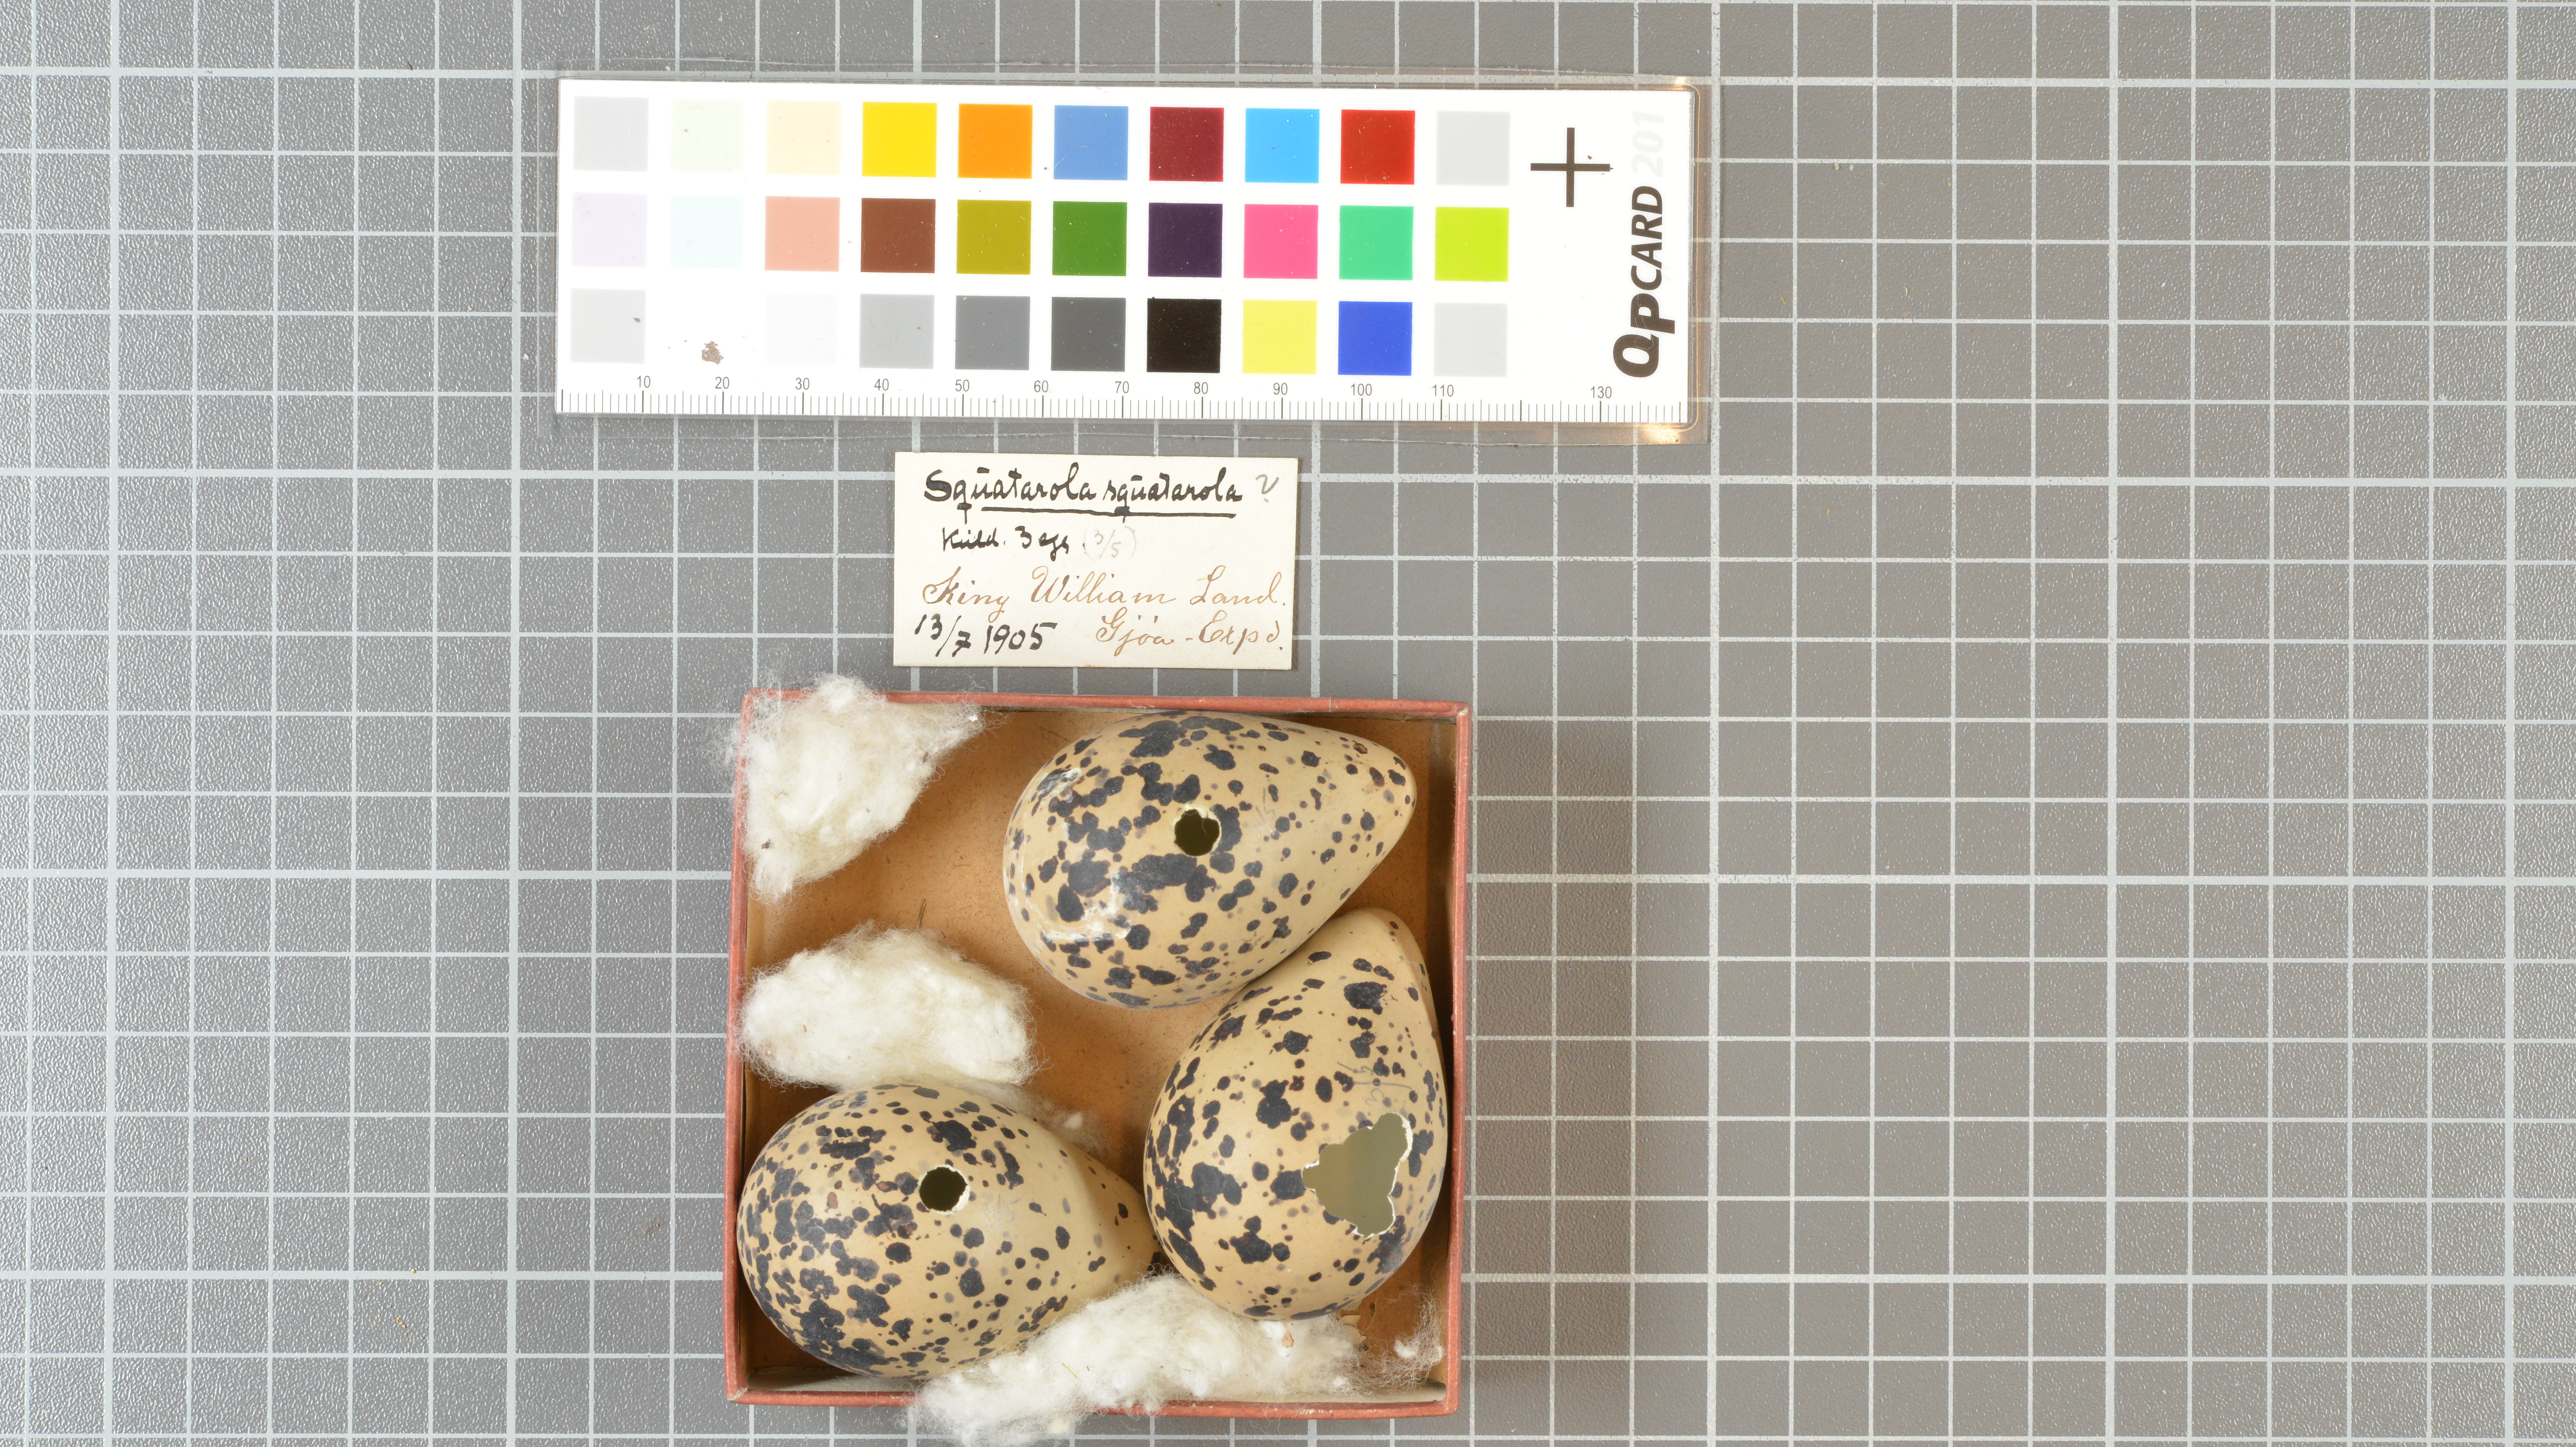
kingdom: Animalia
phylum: Chordata
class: Aves
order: Charadriiformes
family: Charadriidae
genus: Pluvialis
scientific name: Pluvialis squatarola
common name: Grey plover
